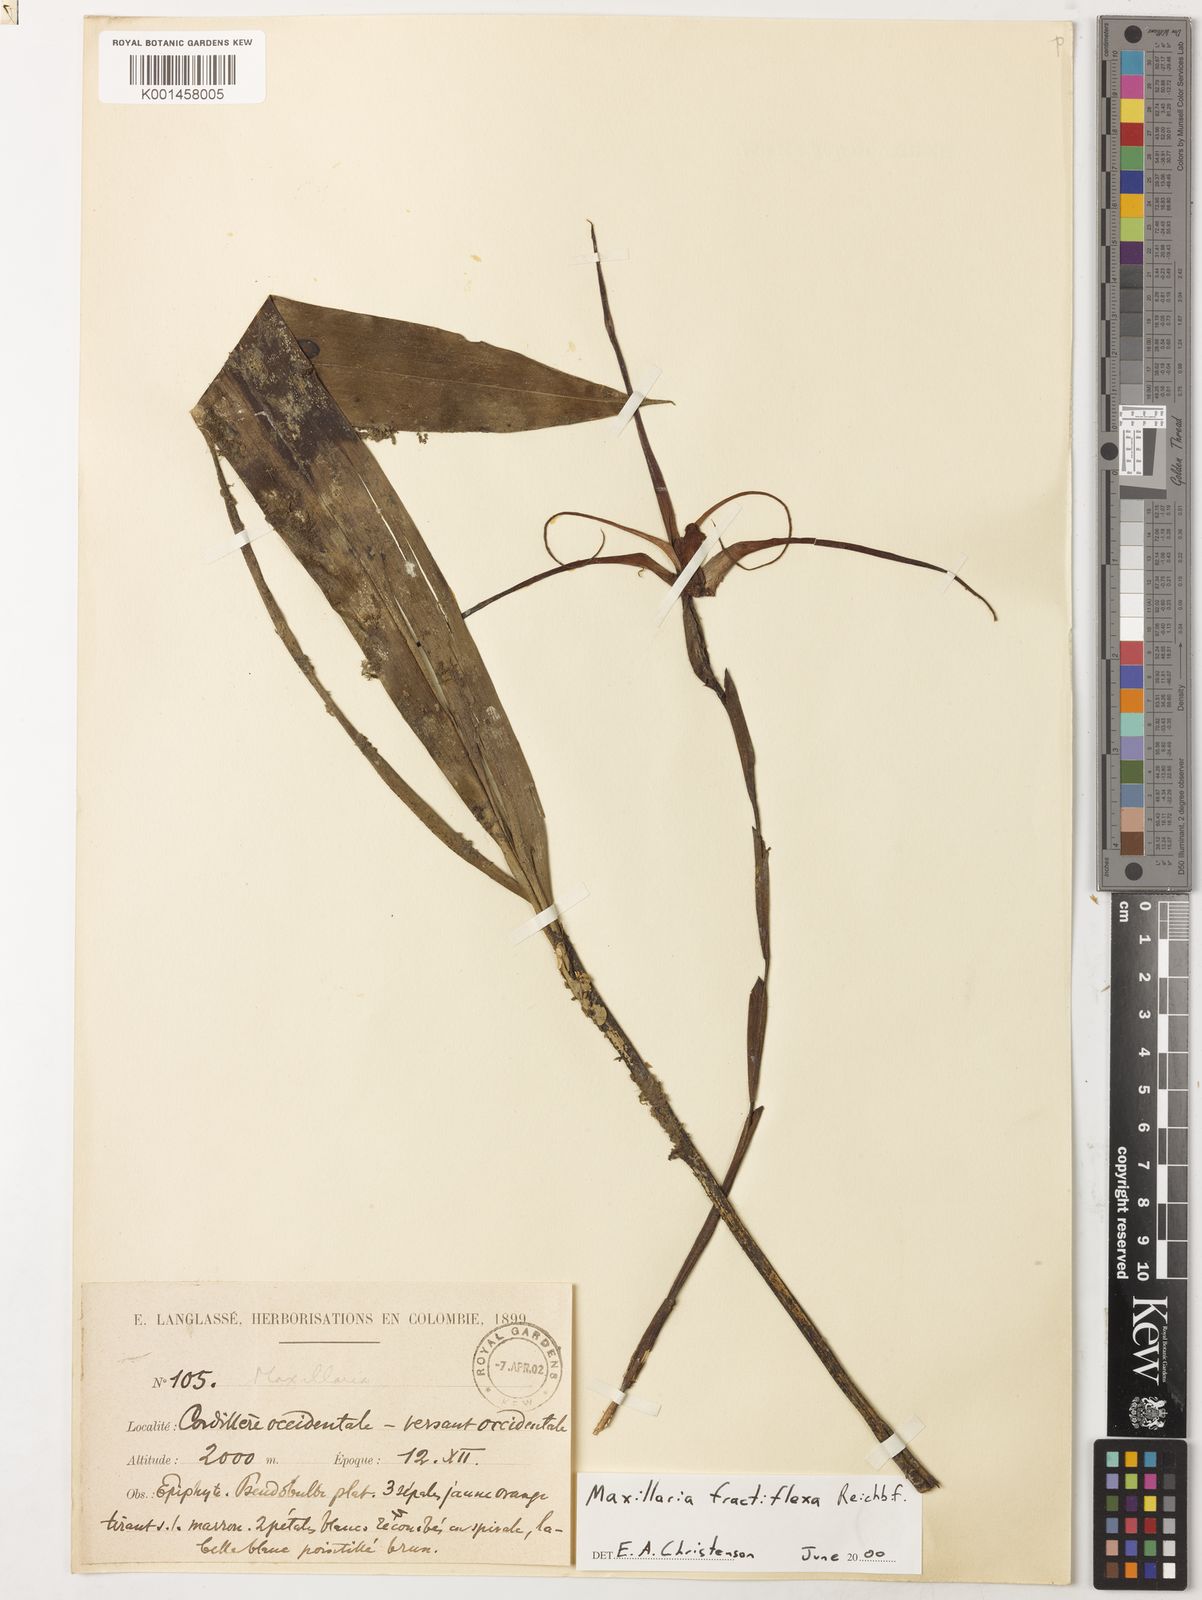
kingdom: Plantae
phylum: Tracheophyta
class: Liliopsida
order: Asparagales
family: Orchidaceae
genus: Maxillaria
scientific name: Maxillaria fractiflexa
